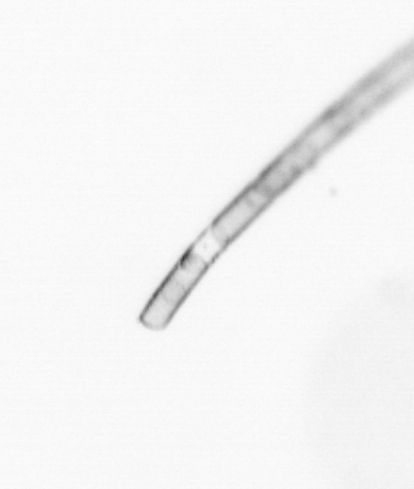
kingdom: Chromista
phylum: Ochrophyta
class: Bacillariophyceae
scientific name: Bacillariophyceae
